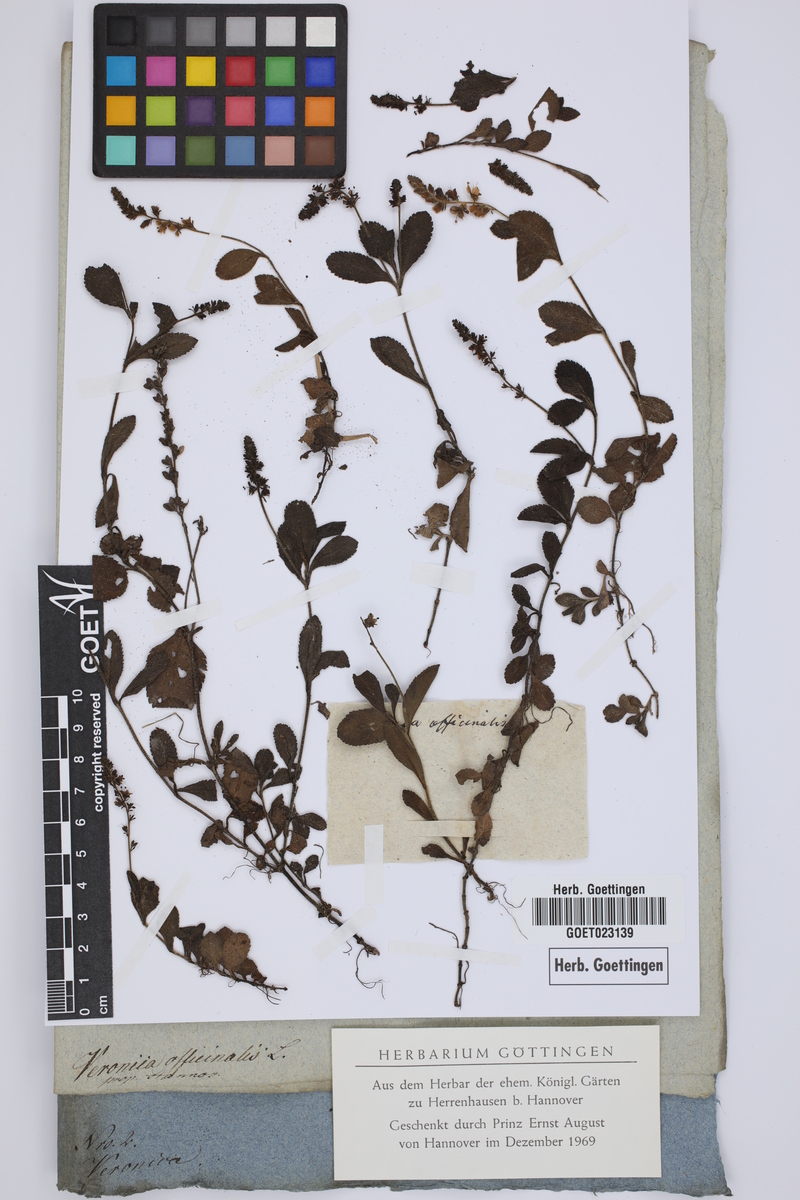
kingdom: Plantae
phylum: Tracheophyta
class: Magnoliopsida
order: Lamiales
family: Plantaginaceae
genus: Veronica
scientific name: Veronica officinalis
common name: Common speedwell
